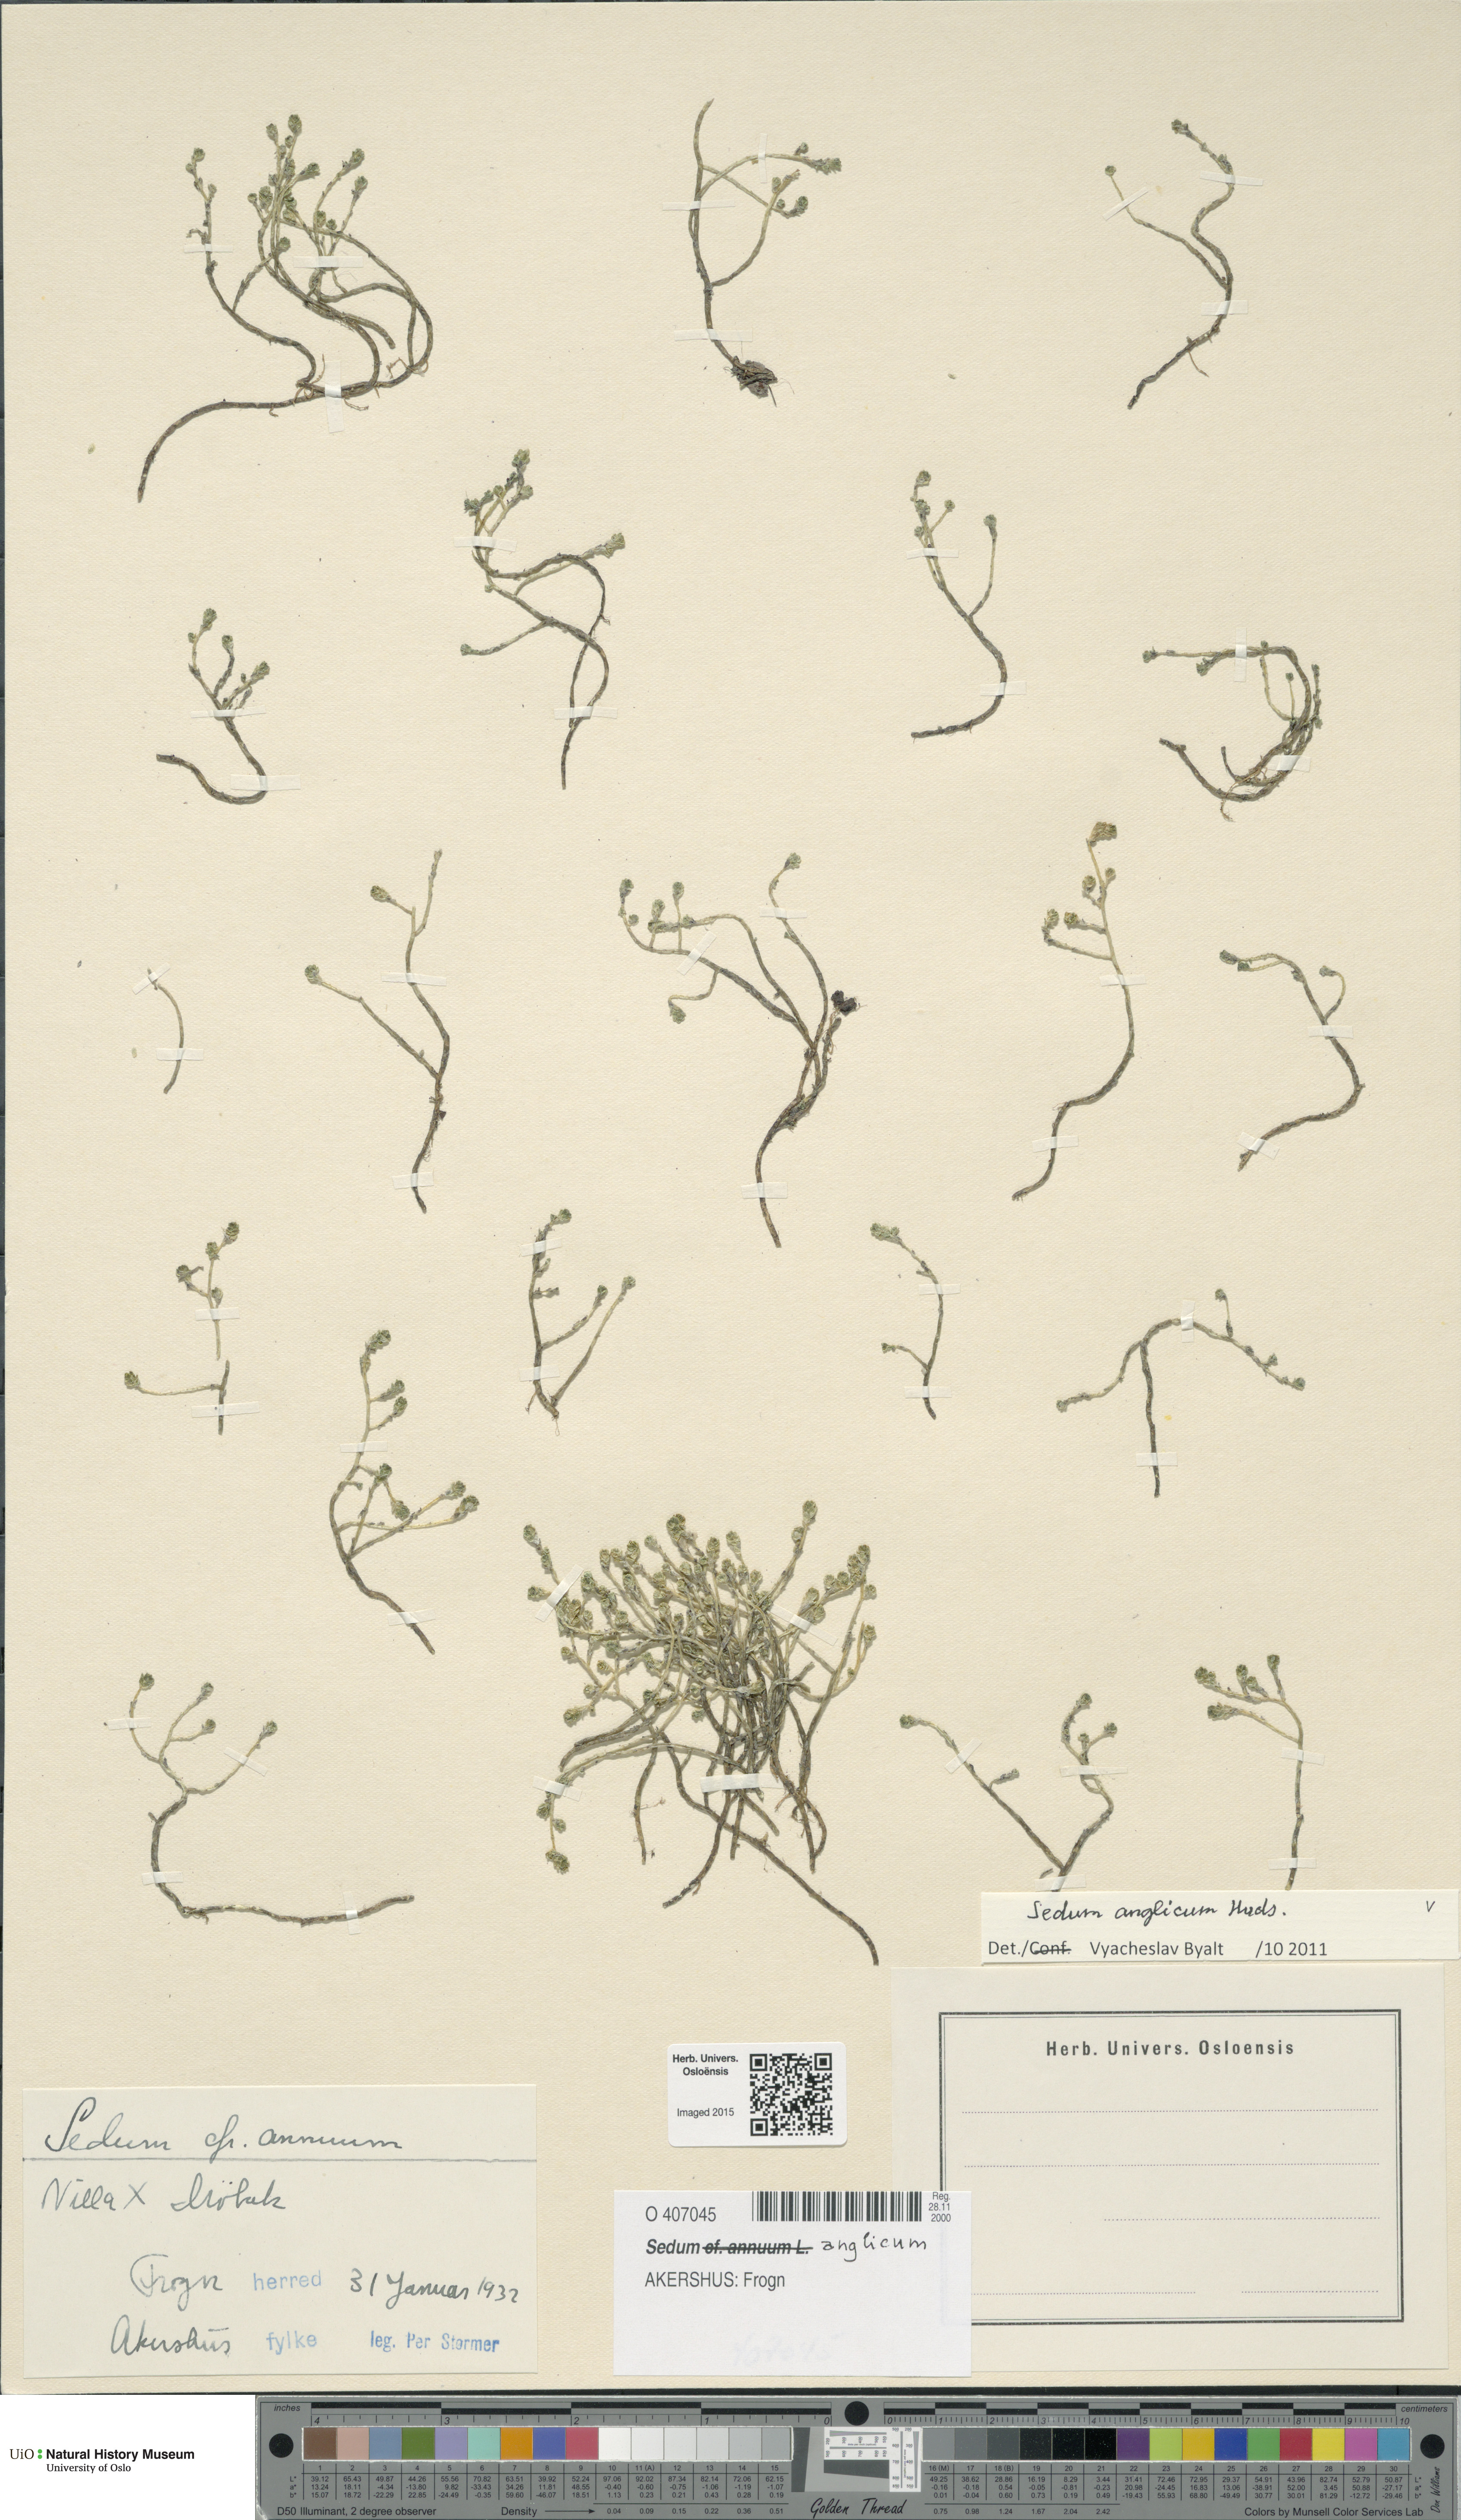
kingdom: Plantae
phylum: Tracheophyta
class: Magnoliopsida
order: Saxifragales
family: Crassulaceae
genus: Sedum
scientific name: Sedum anglicum
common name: English stonecrop
